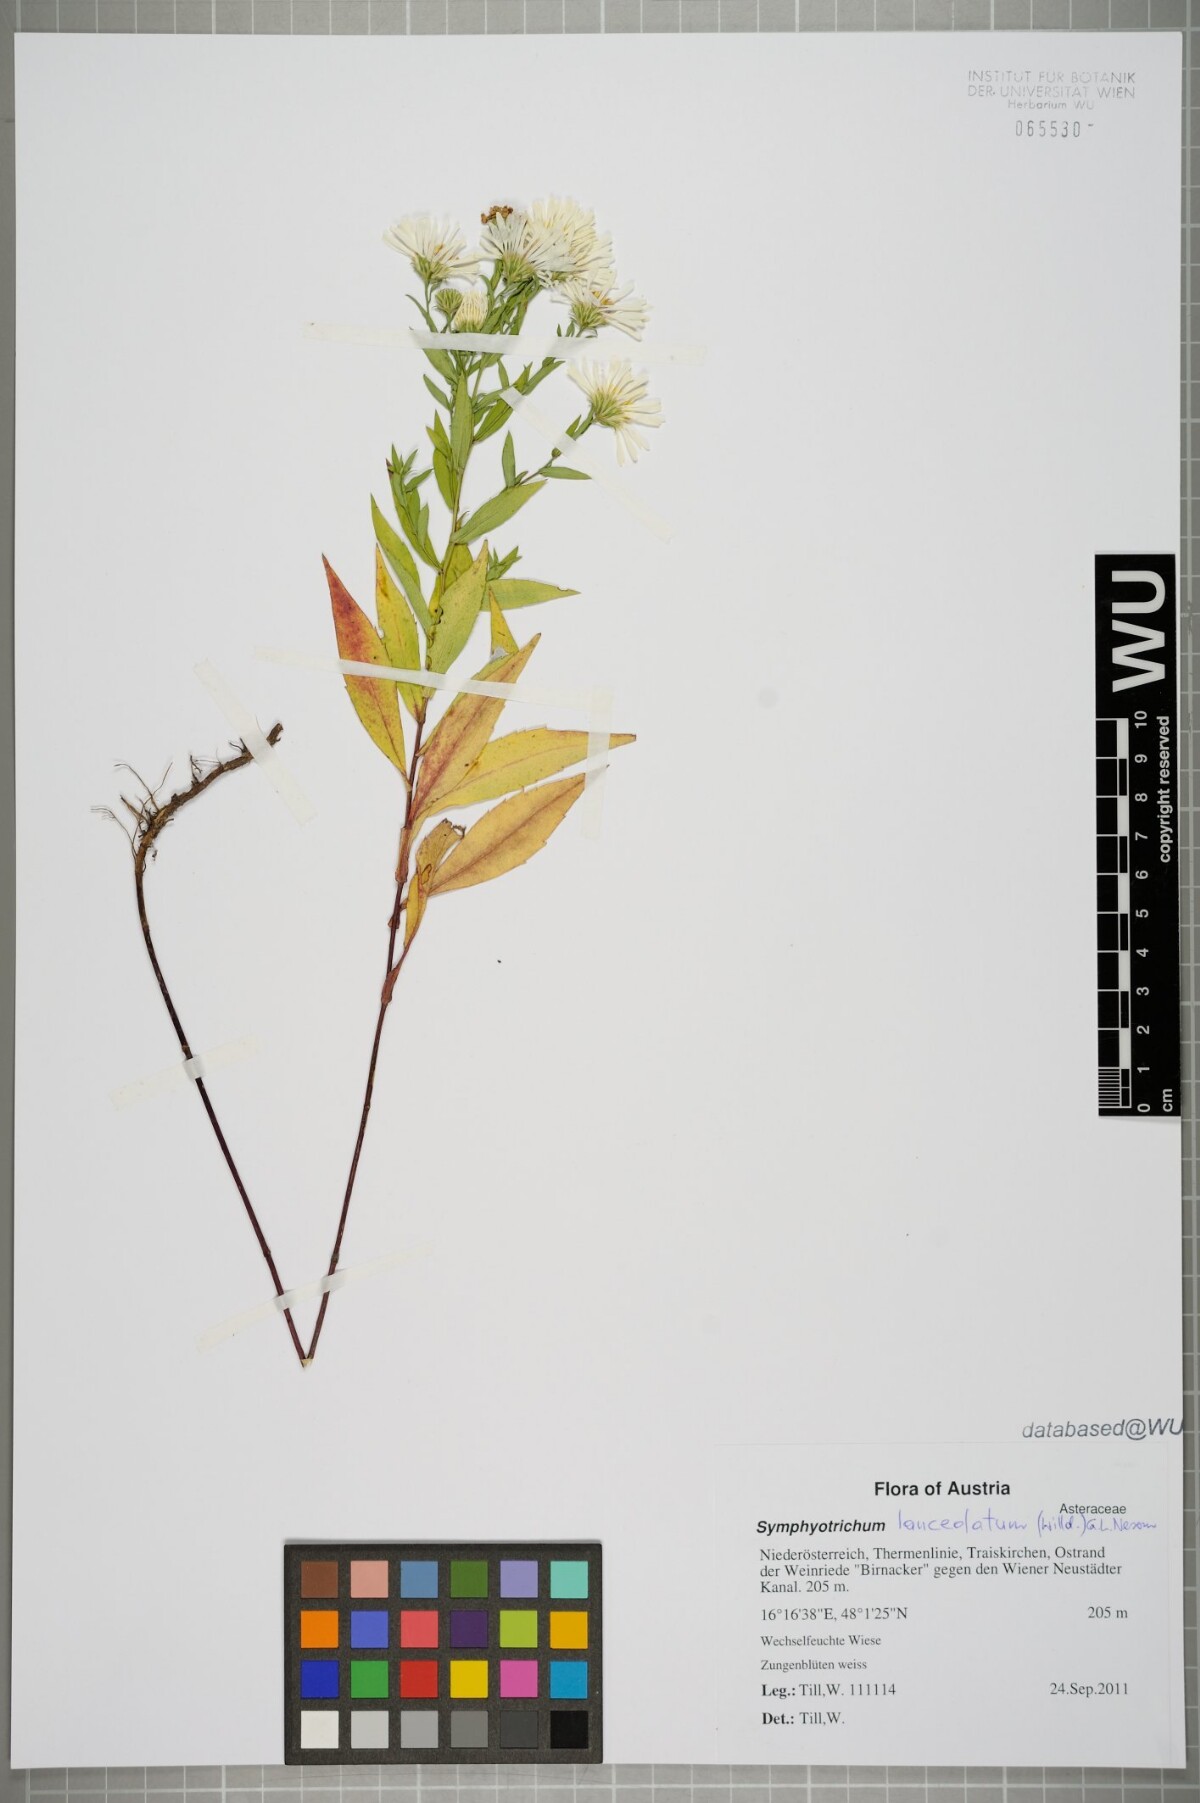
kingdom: Plantae
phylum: Tracheophyta
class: Magnoliopsida
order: Asterales
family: Asteraceae
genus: Symphyotrichum
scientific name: Symphyotrichum lanceolatum
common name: Panicled aster
